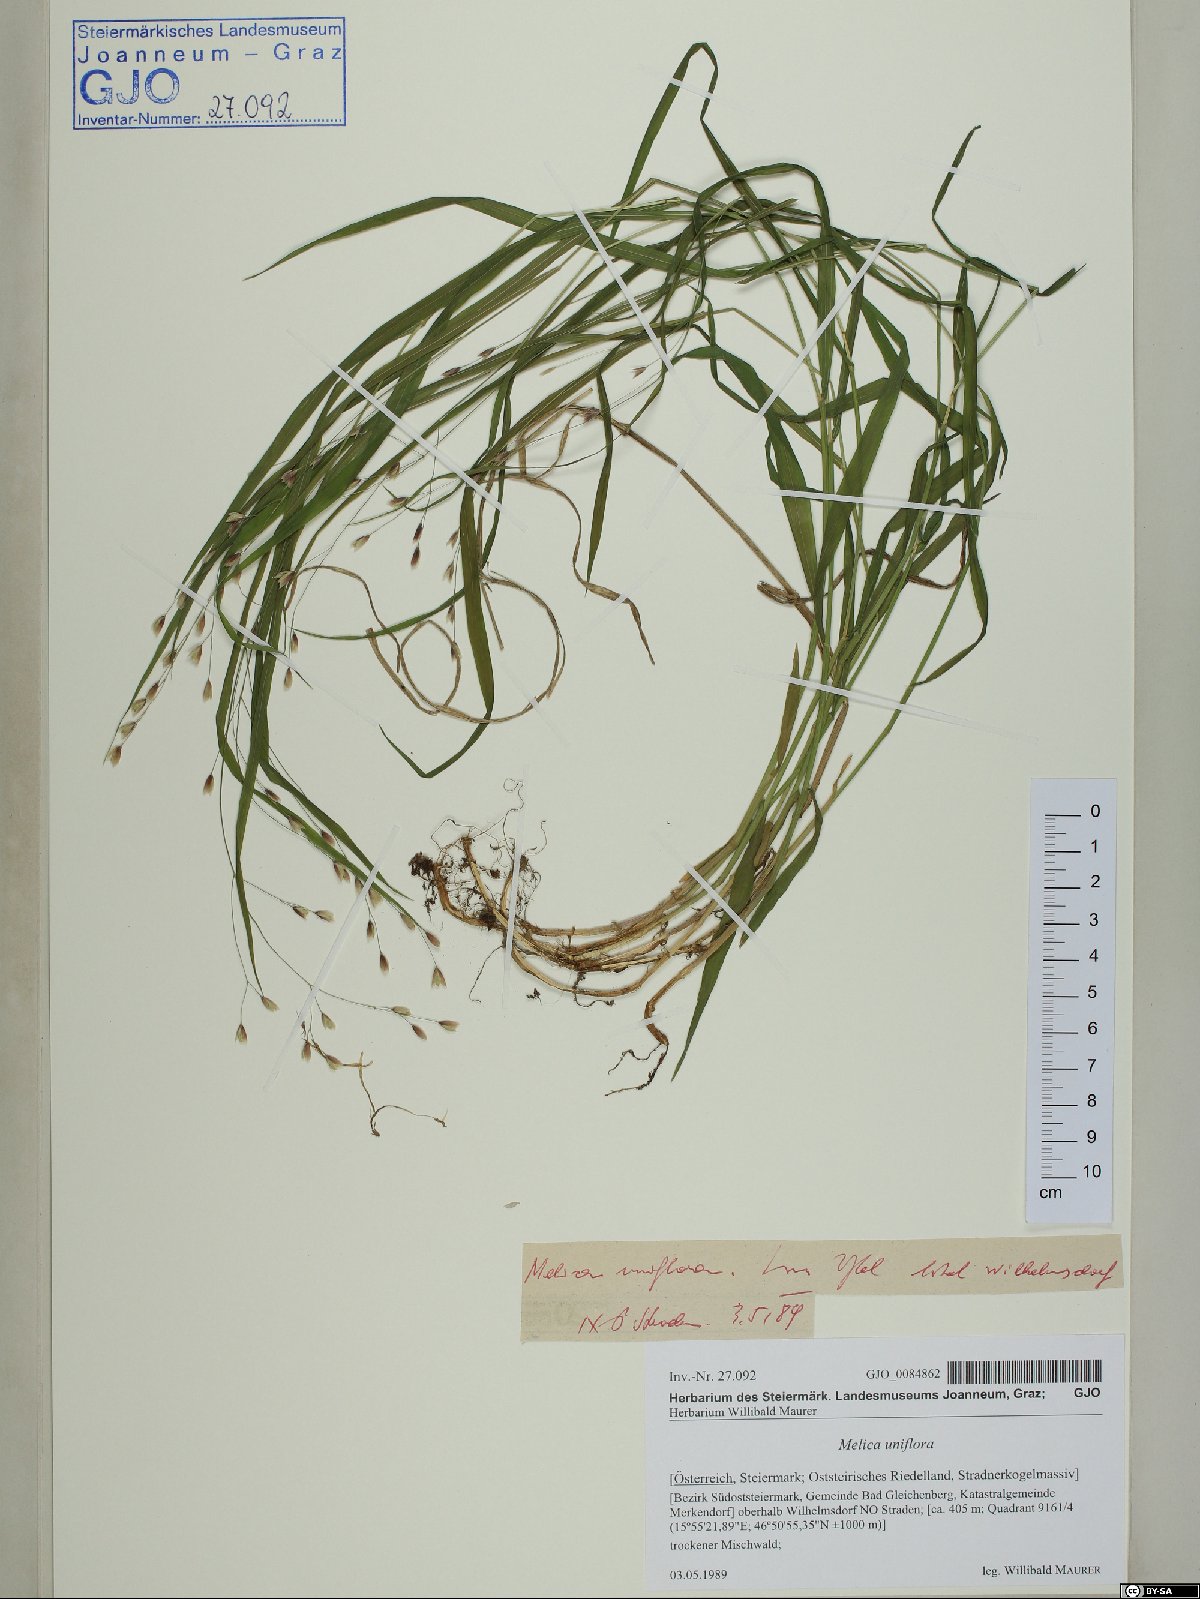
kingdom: Plantae
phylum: Tracheophyta
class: Liliopsida
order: Poales
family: Poaceae
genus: Melica
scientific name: Melica uniflora
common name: Wood melick
